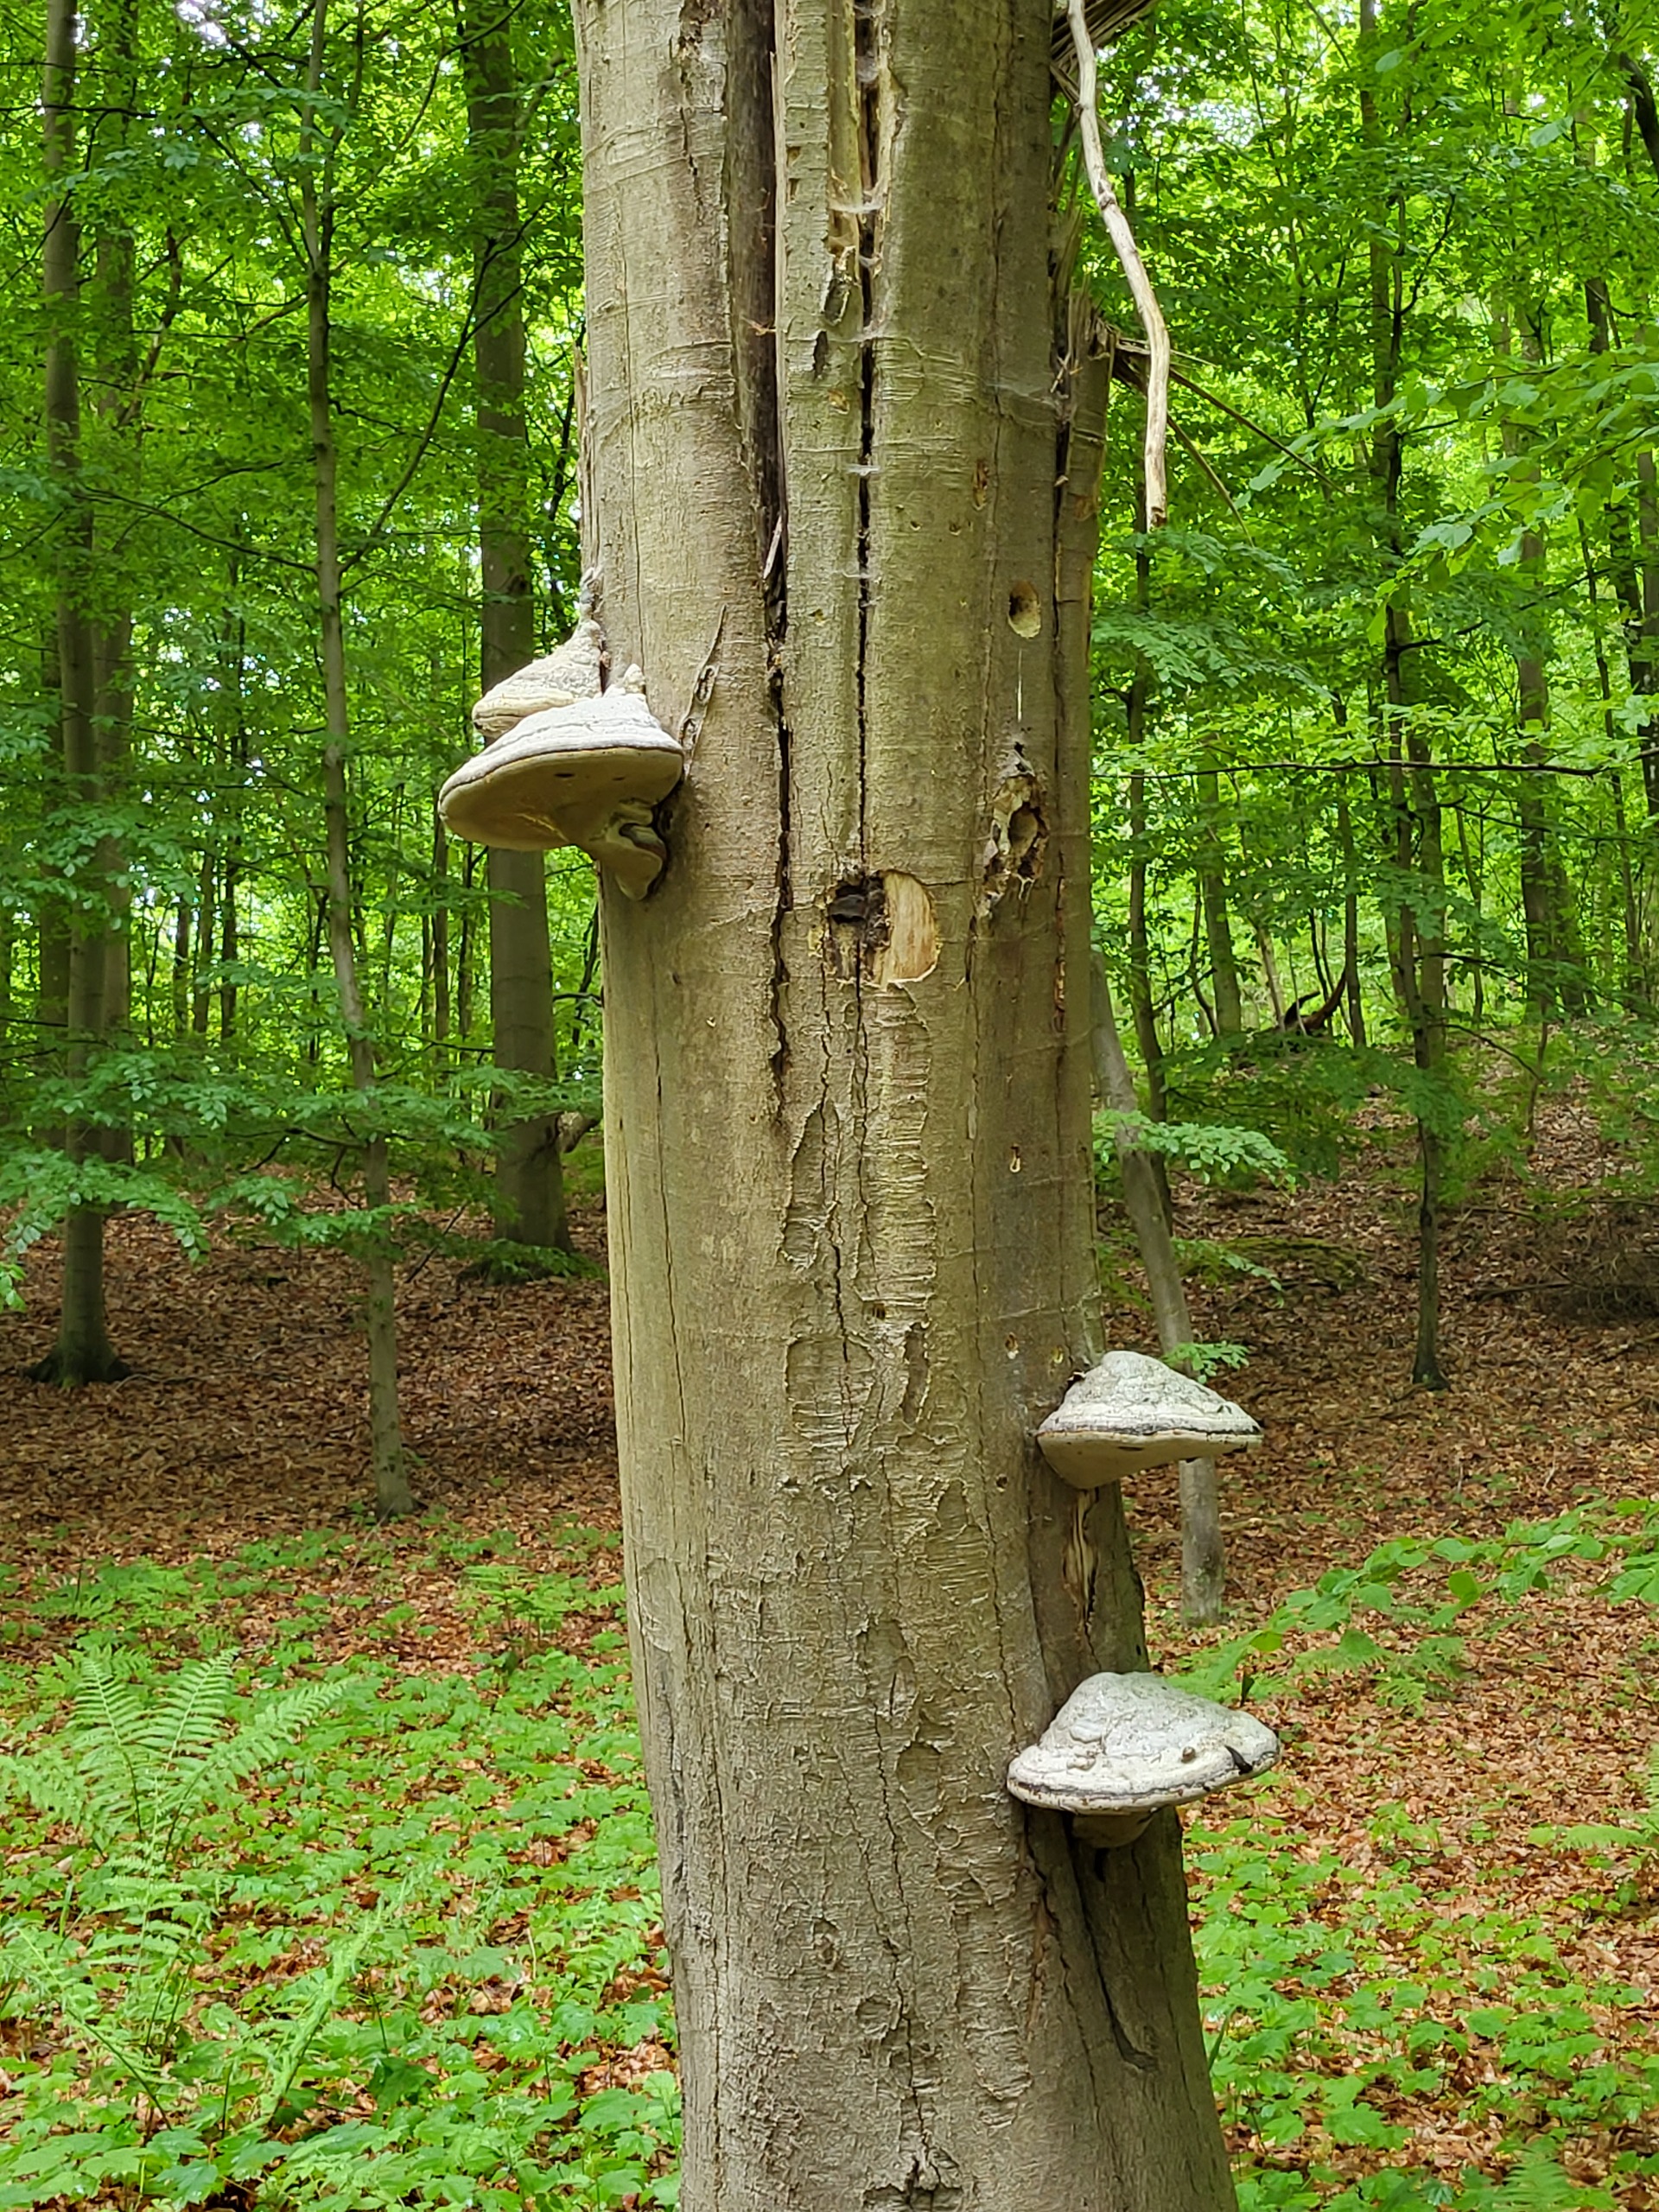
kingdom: Fungi
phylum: Basidiomycota
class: Agaricomycetes
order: Polyporales
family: Polyporaceae
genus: Fomes
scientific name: Fomes fomentarius
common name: Tøndersvamp
